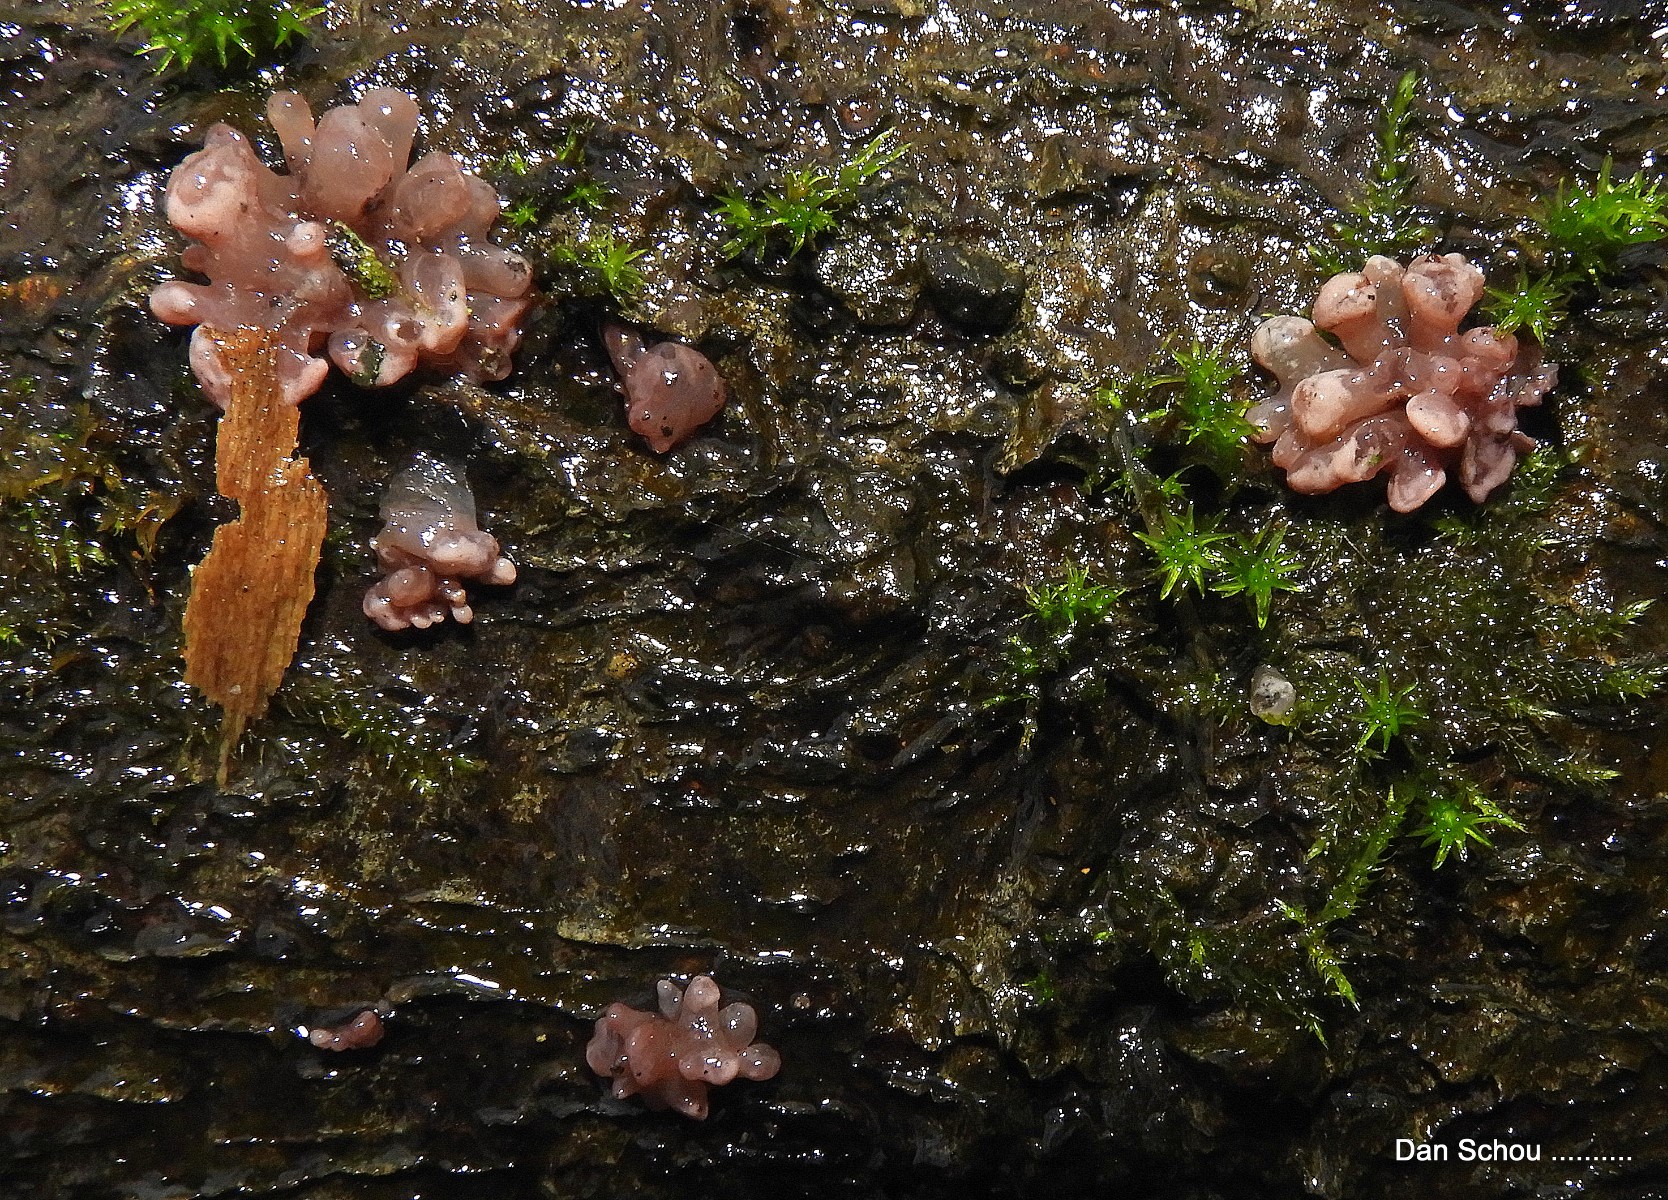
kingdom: Fungi
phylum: Ascomycota
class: Leotiomycetes
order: Helotiales
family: Gelatinodiscaceae
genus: Ascocoryne
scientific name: Ascocoryne sarcoides
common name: rødlilla sejskive
